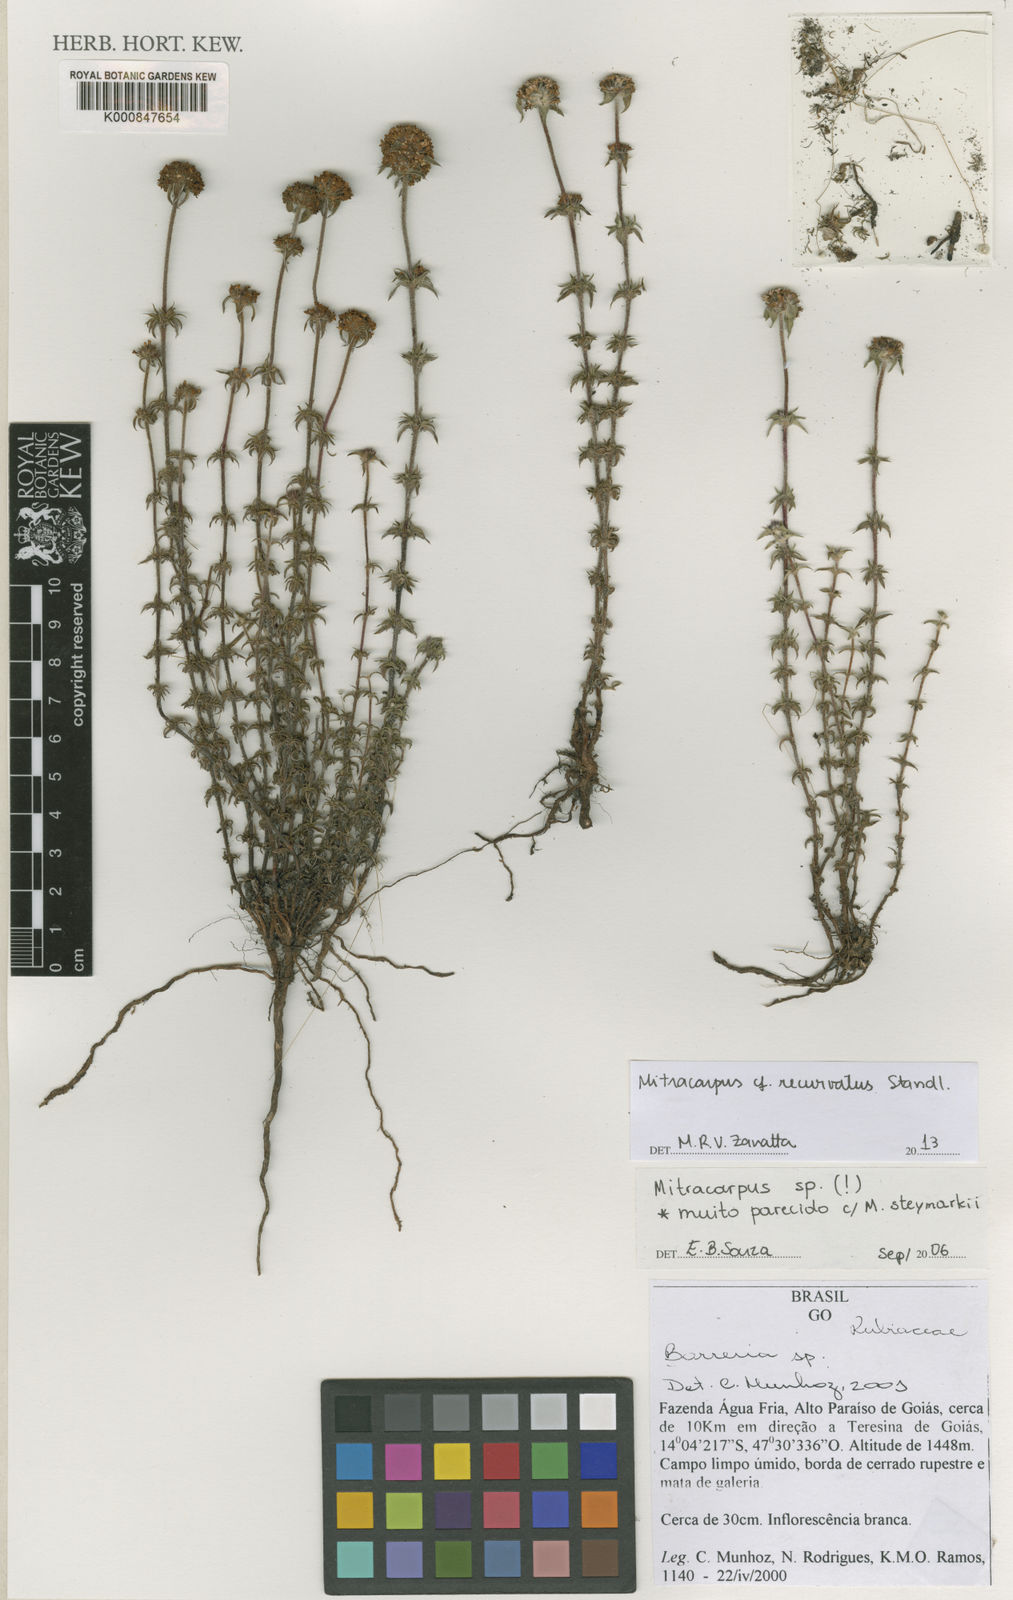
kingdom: Plantae
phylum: Tracheophyta
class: Magnoliopsida
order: Gentianales
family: Rubiaceae
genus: Mitracarpus
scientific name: Mitracarpus recurvatus
